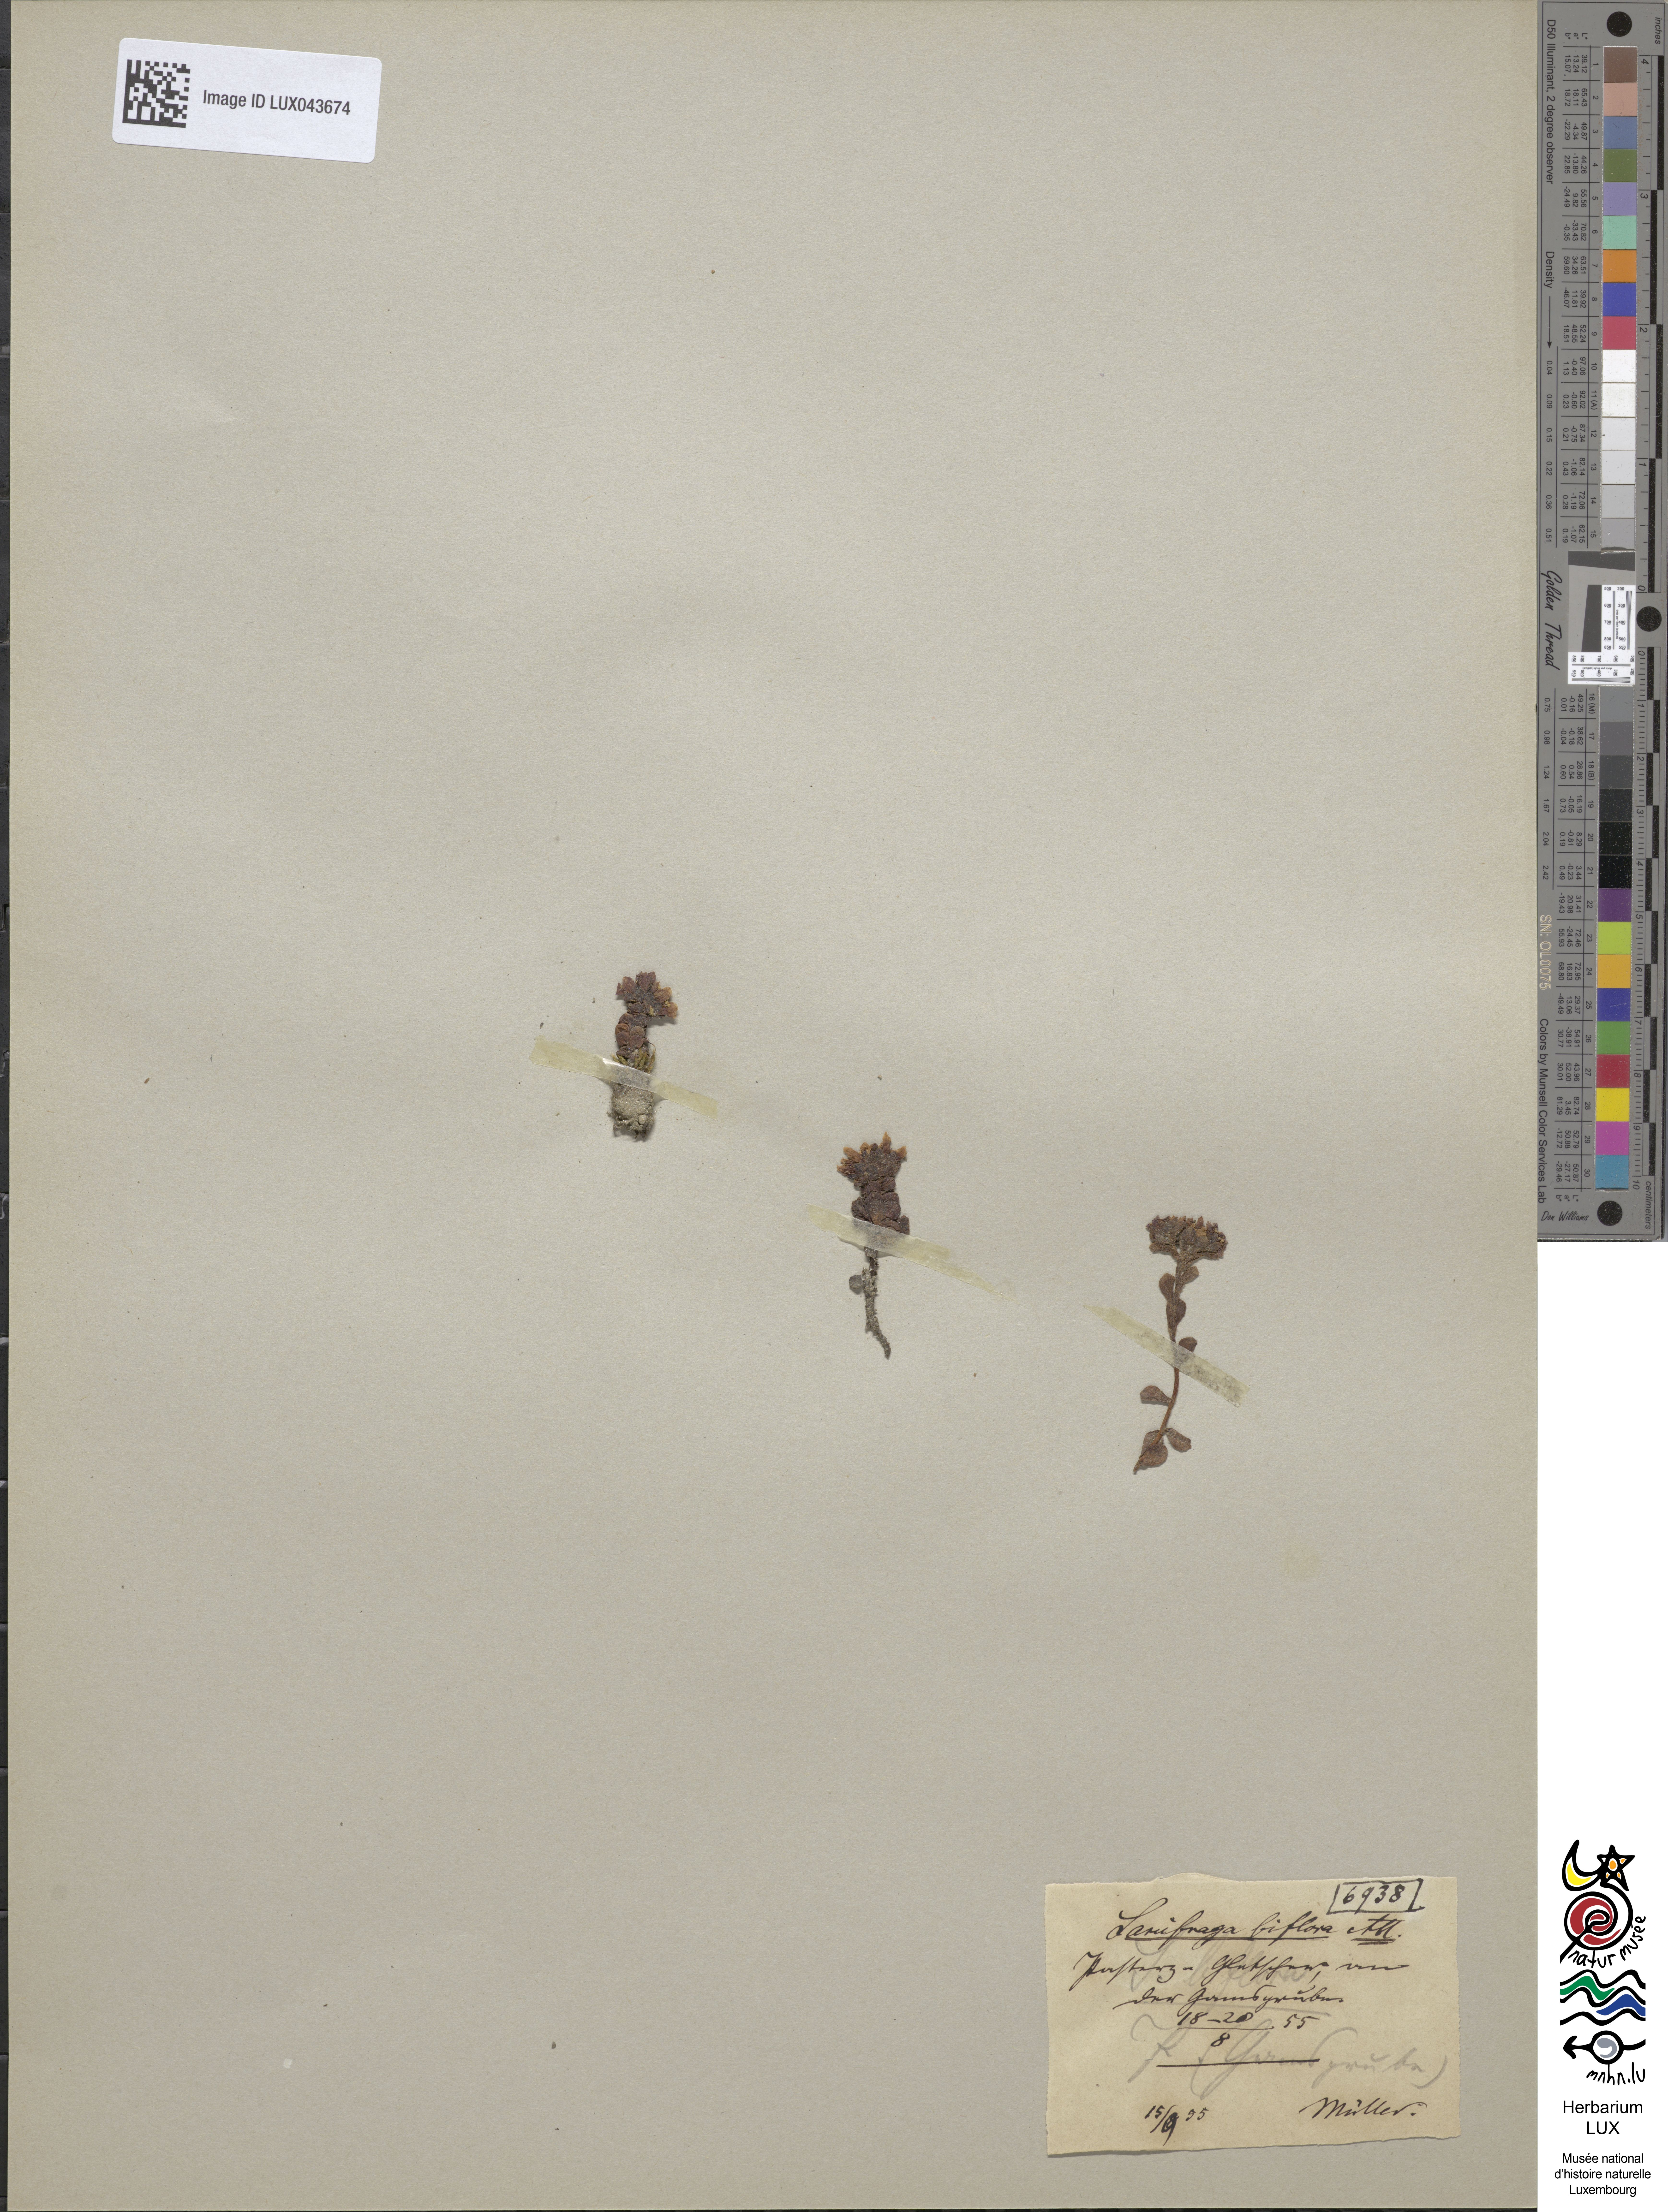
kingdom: Plantae
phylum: Tracheophyta
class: Magnoliopsida
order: Saxifragales
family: Saxifragaceae
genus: Saxifraga
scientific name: Saxifraga biflora
